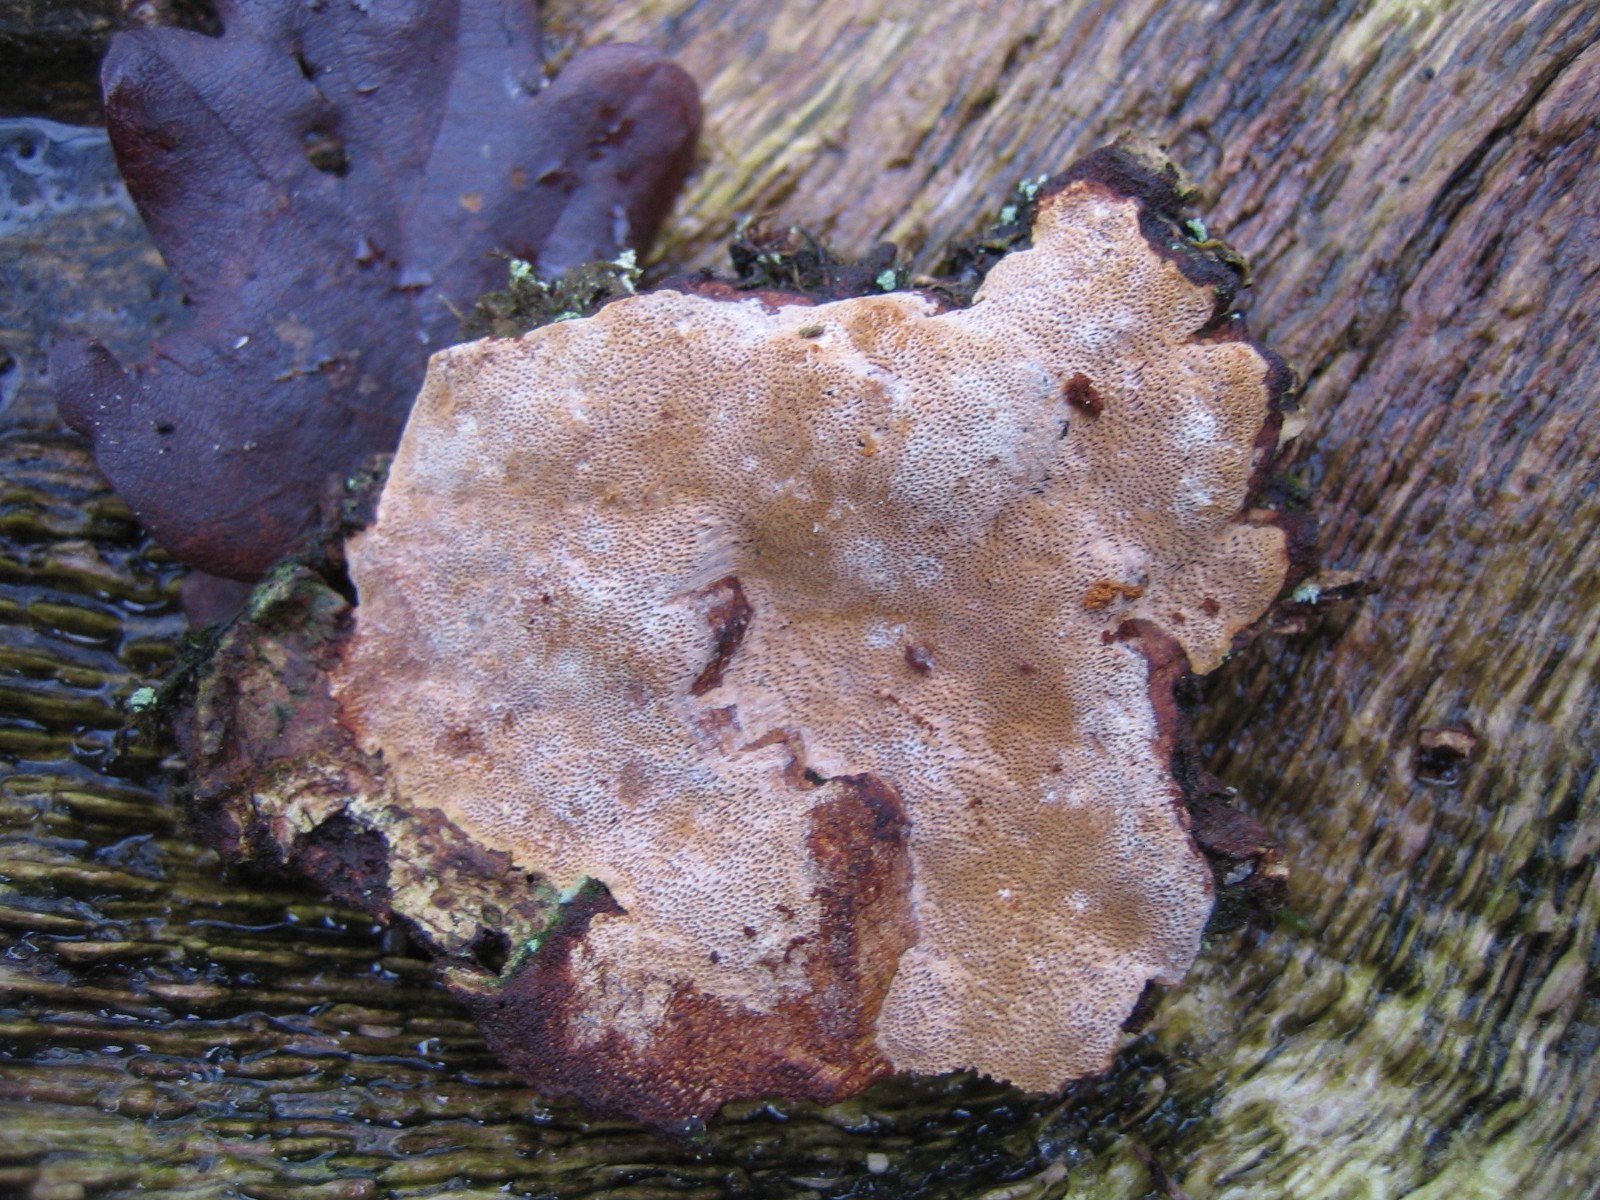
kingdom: Fungi
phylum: Basidiomycota
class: Agaricomycetes
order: Hymenochaetales
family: Hymenochaetaceae
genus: Fuscoporia
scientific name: Fuscoporia ferrea
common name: skorpe-ildporesvamp
